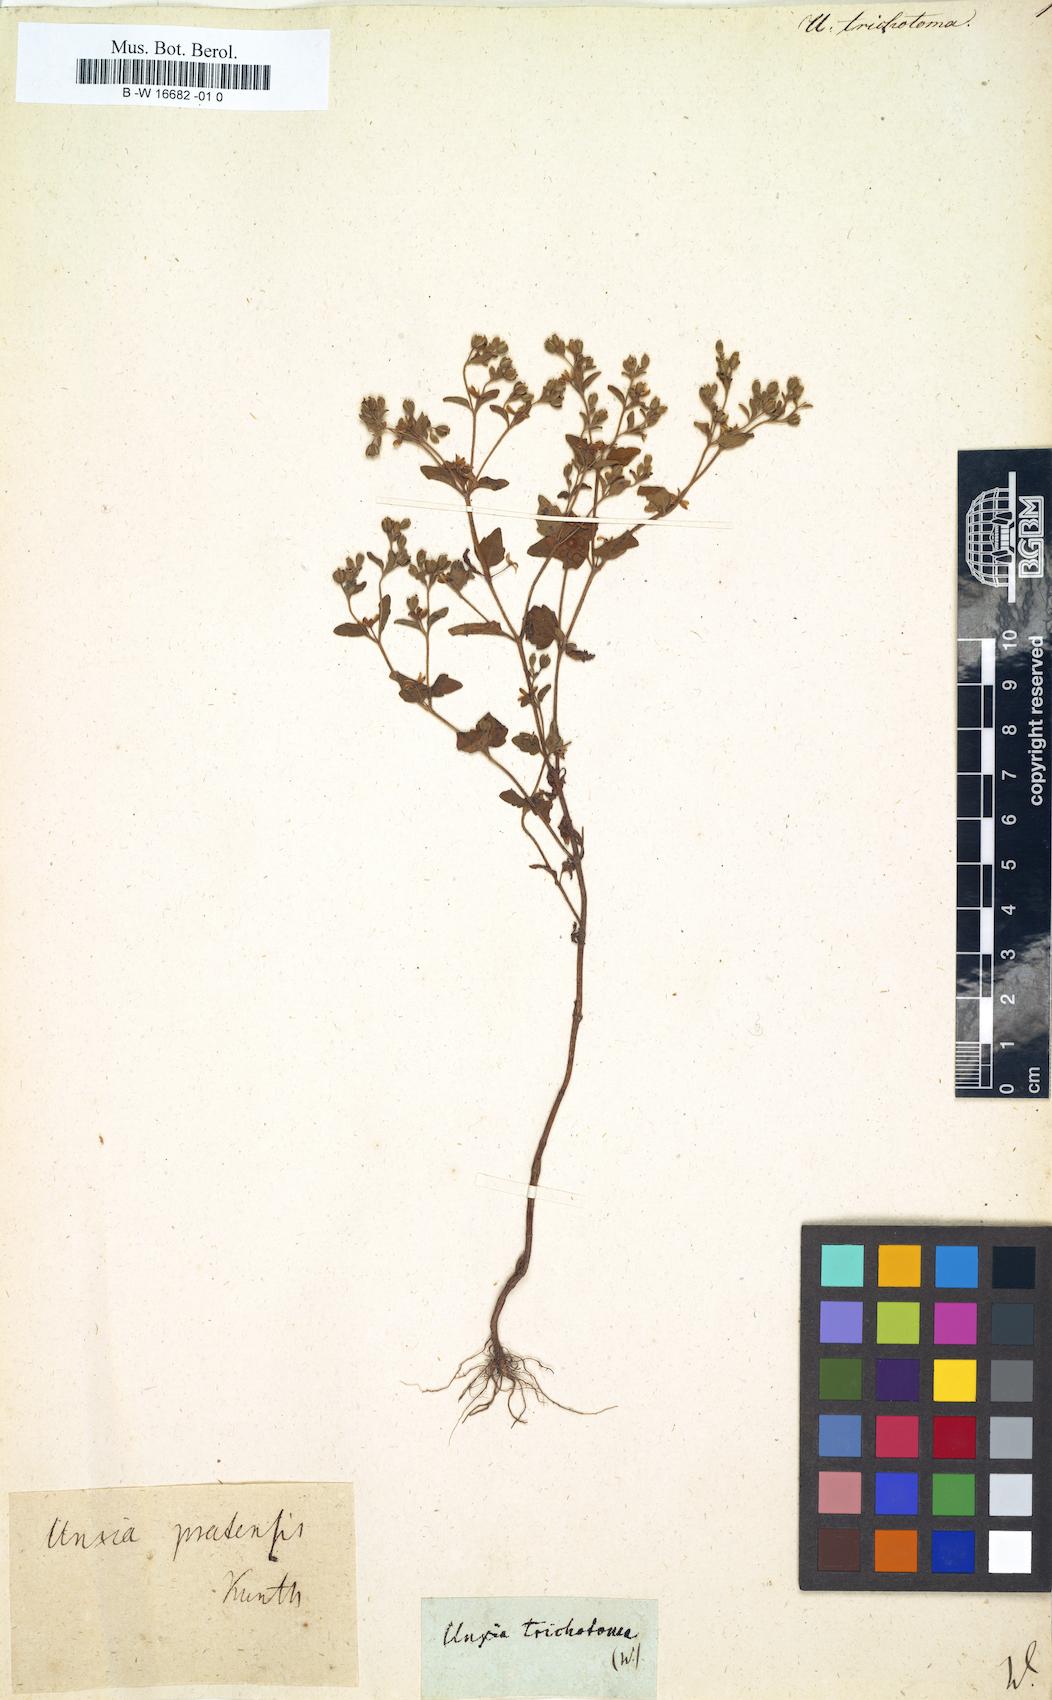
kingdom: Plantae
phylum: Tracheophyta
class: Magnoliopsida
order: Asterales
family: Asteraceae
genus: Unxia
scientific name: Unxia
